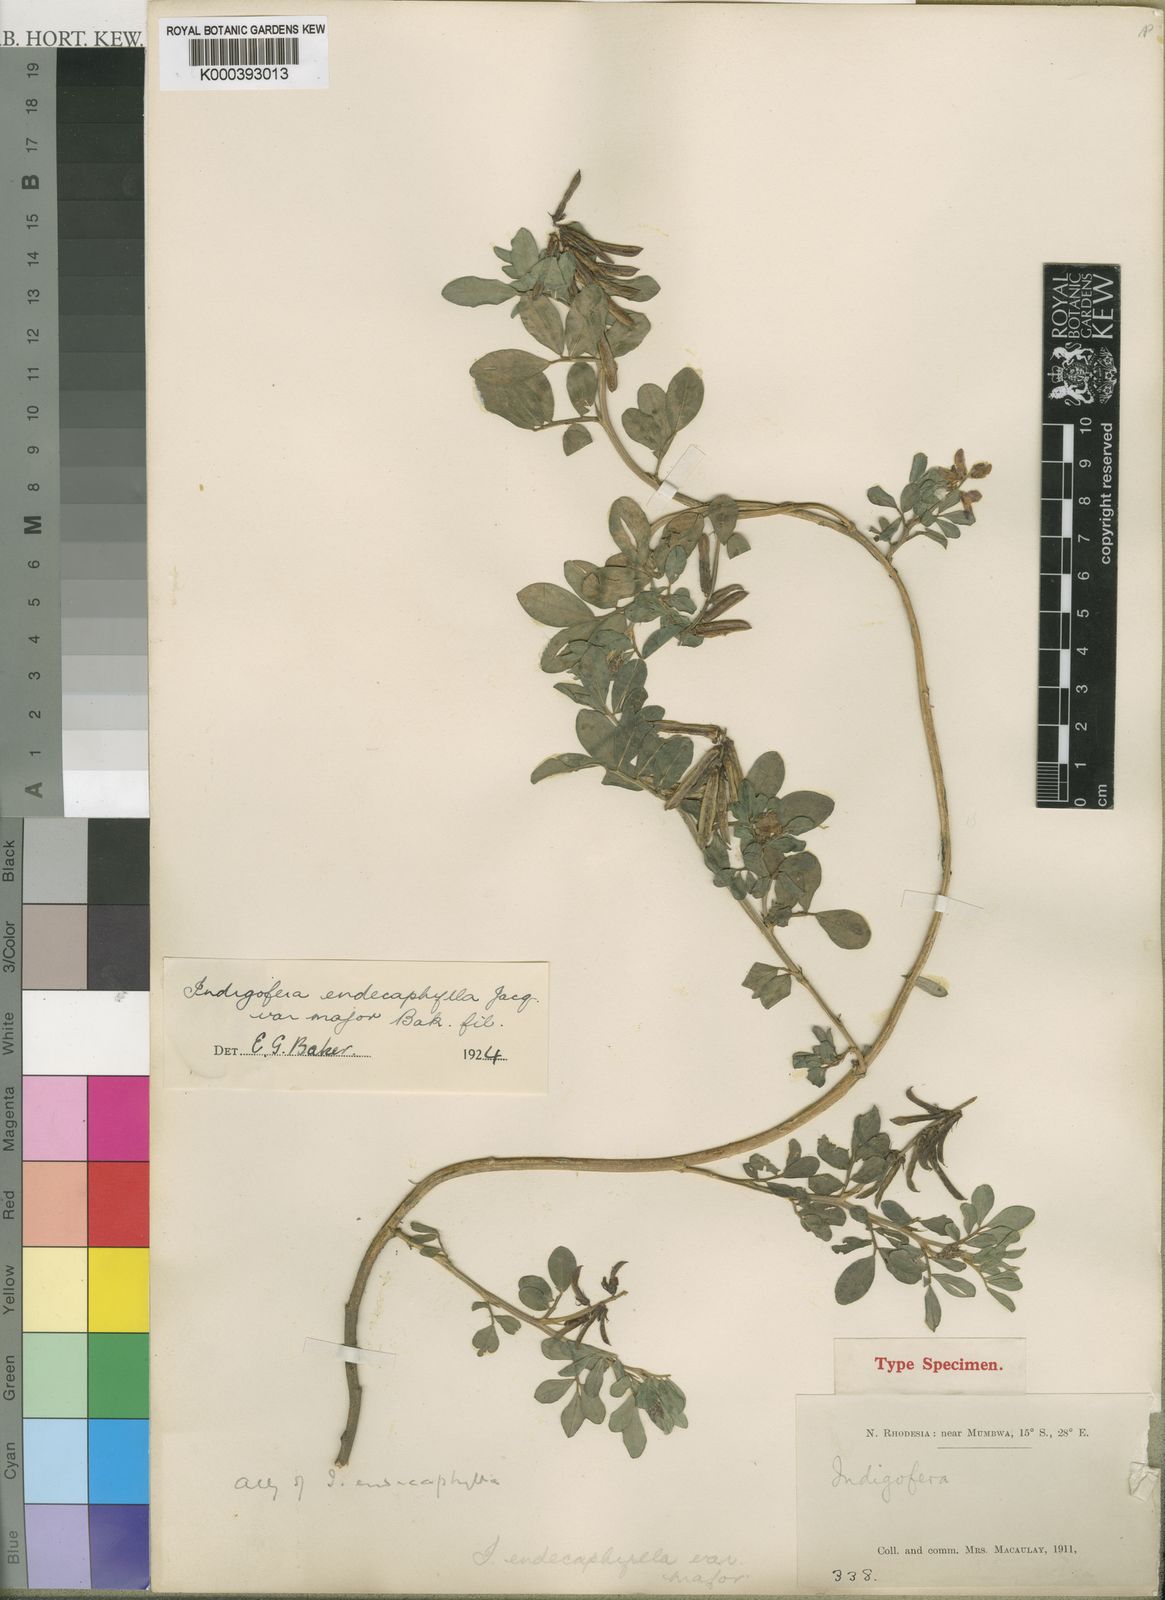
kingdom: Plantae
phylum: Tracheophyta
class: Magnoliopsida
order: Fabales
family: Fabaceae
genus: Indigofera
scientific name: Indigofera spicata
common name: Creeping indigo
